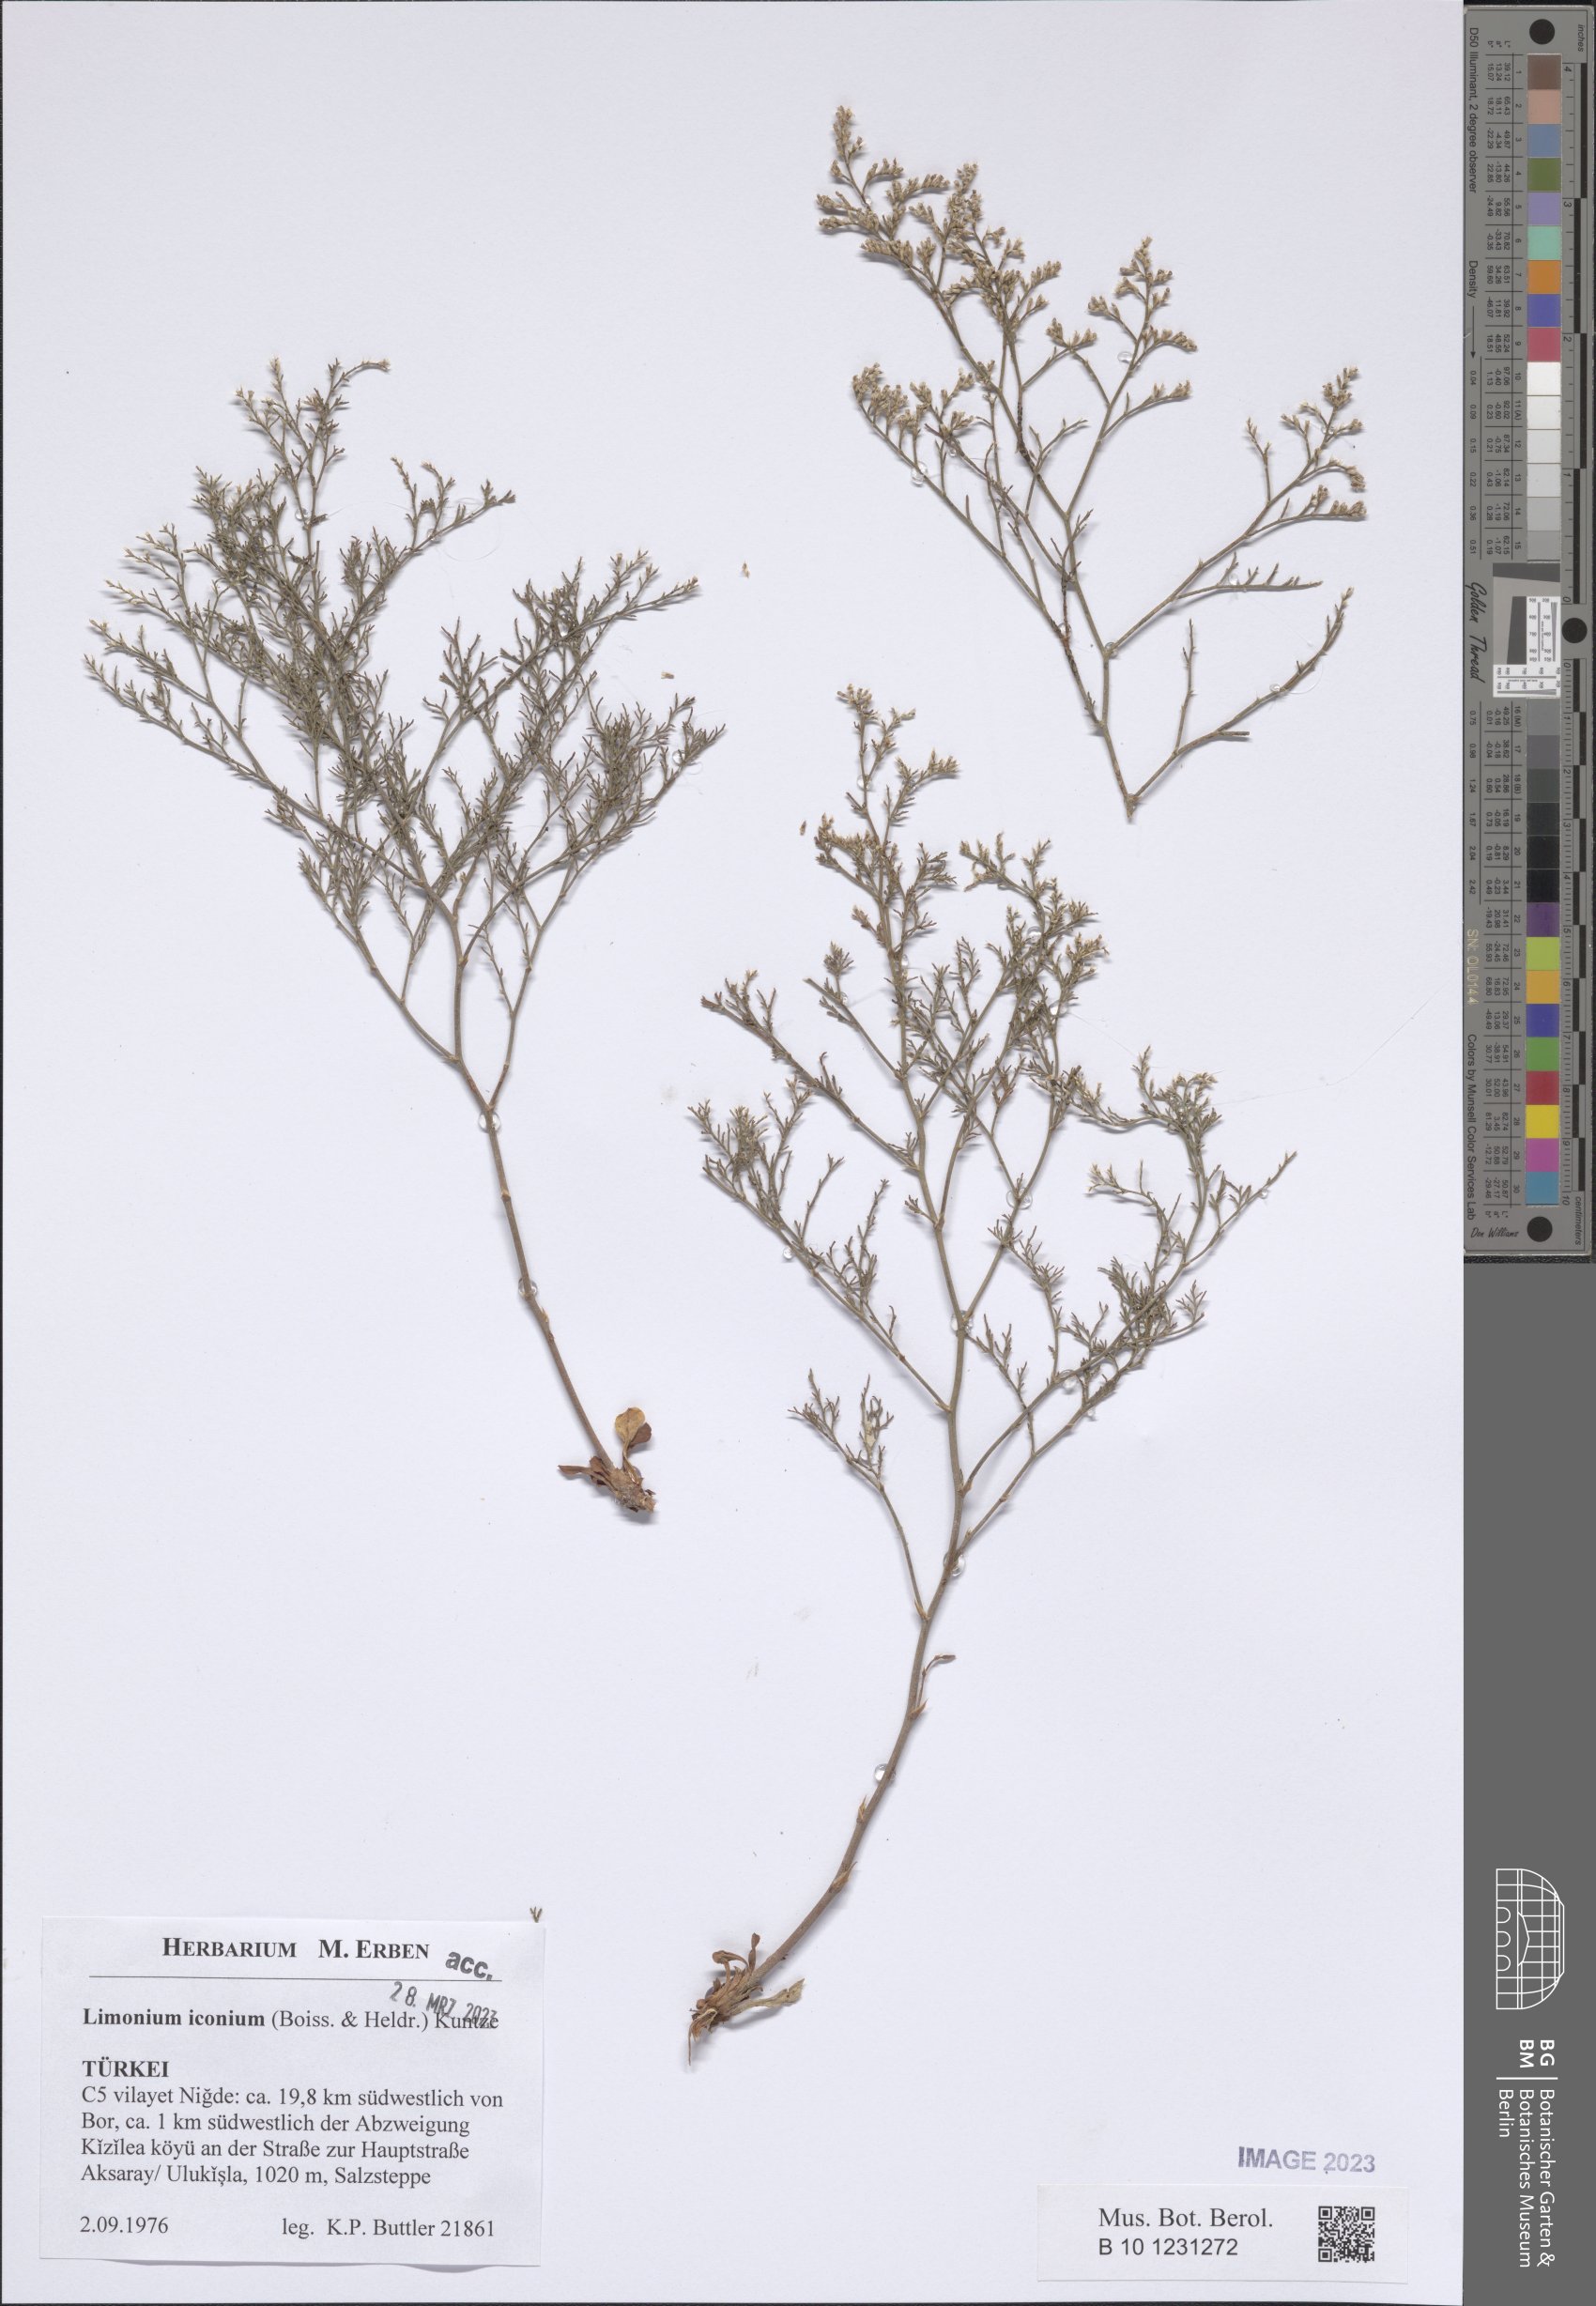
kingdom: Plantae
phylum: Tracheophyta
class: Magnoliopsida
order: Caryophyllales
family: Plumbaginaceae
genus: Limonium
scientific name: Limonium iconium
